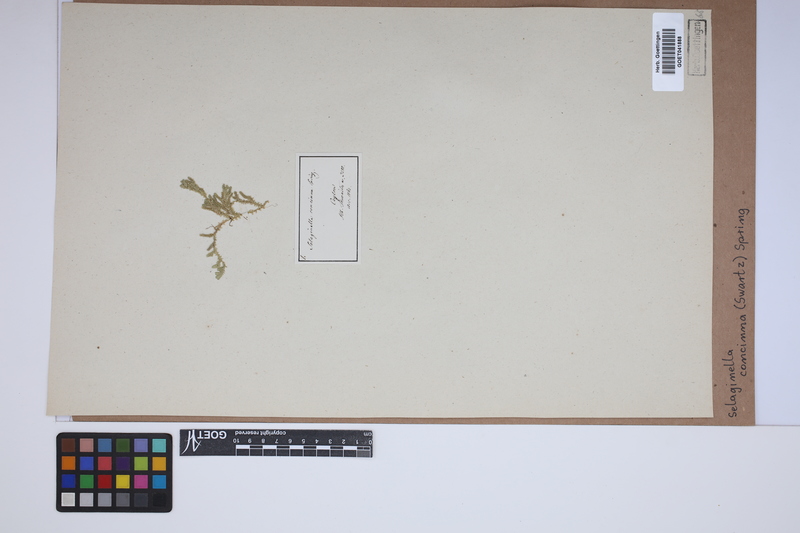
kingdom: Plantae
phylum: Tracheophyta
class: Lycopodiopsida
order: Selaginellales
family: Selaginellaceae
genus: Selaginella
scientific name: Selaginella concinna
